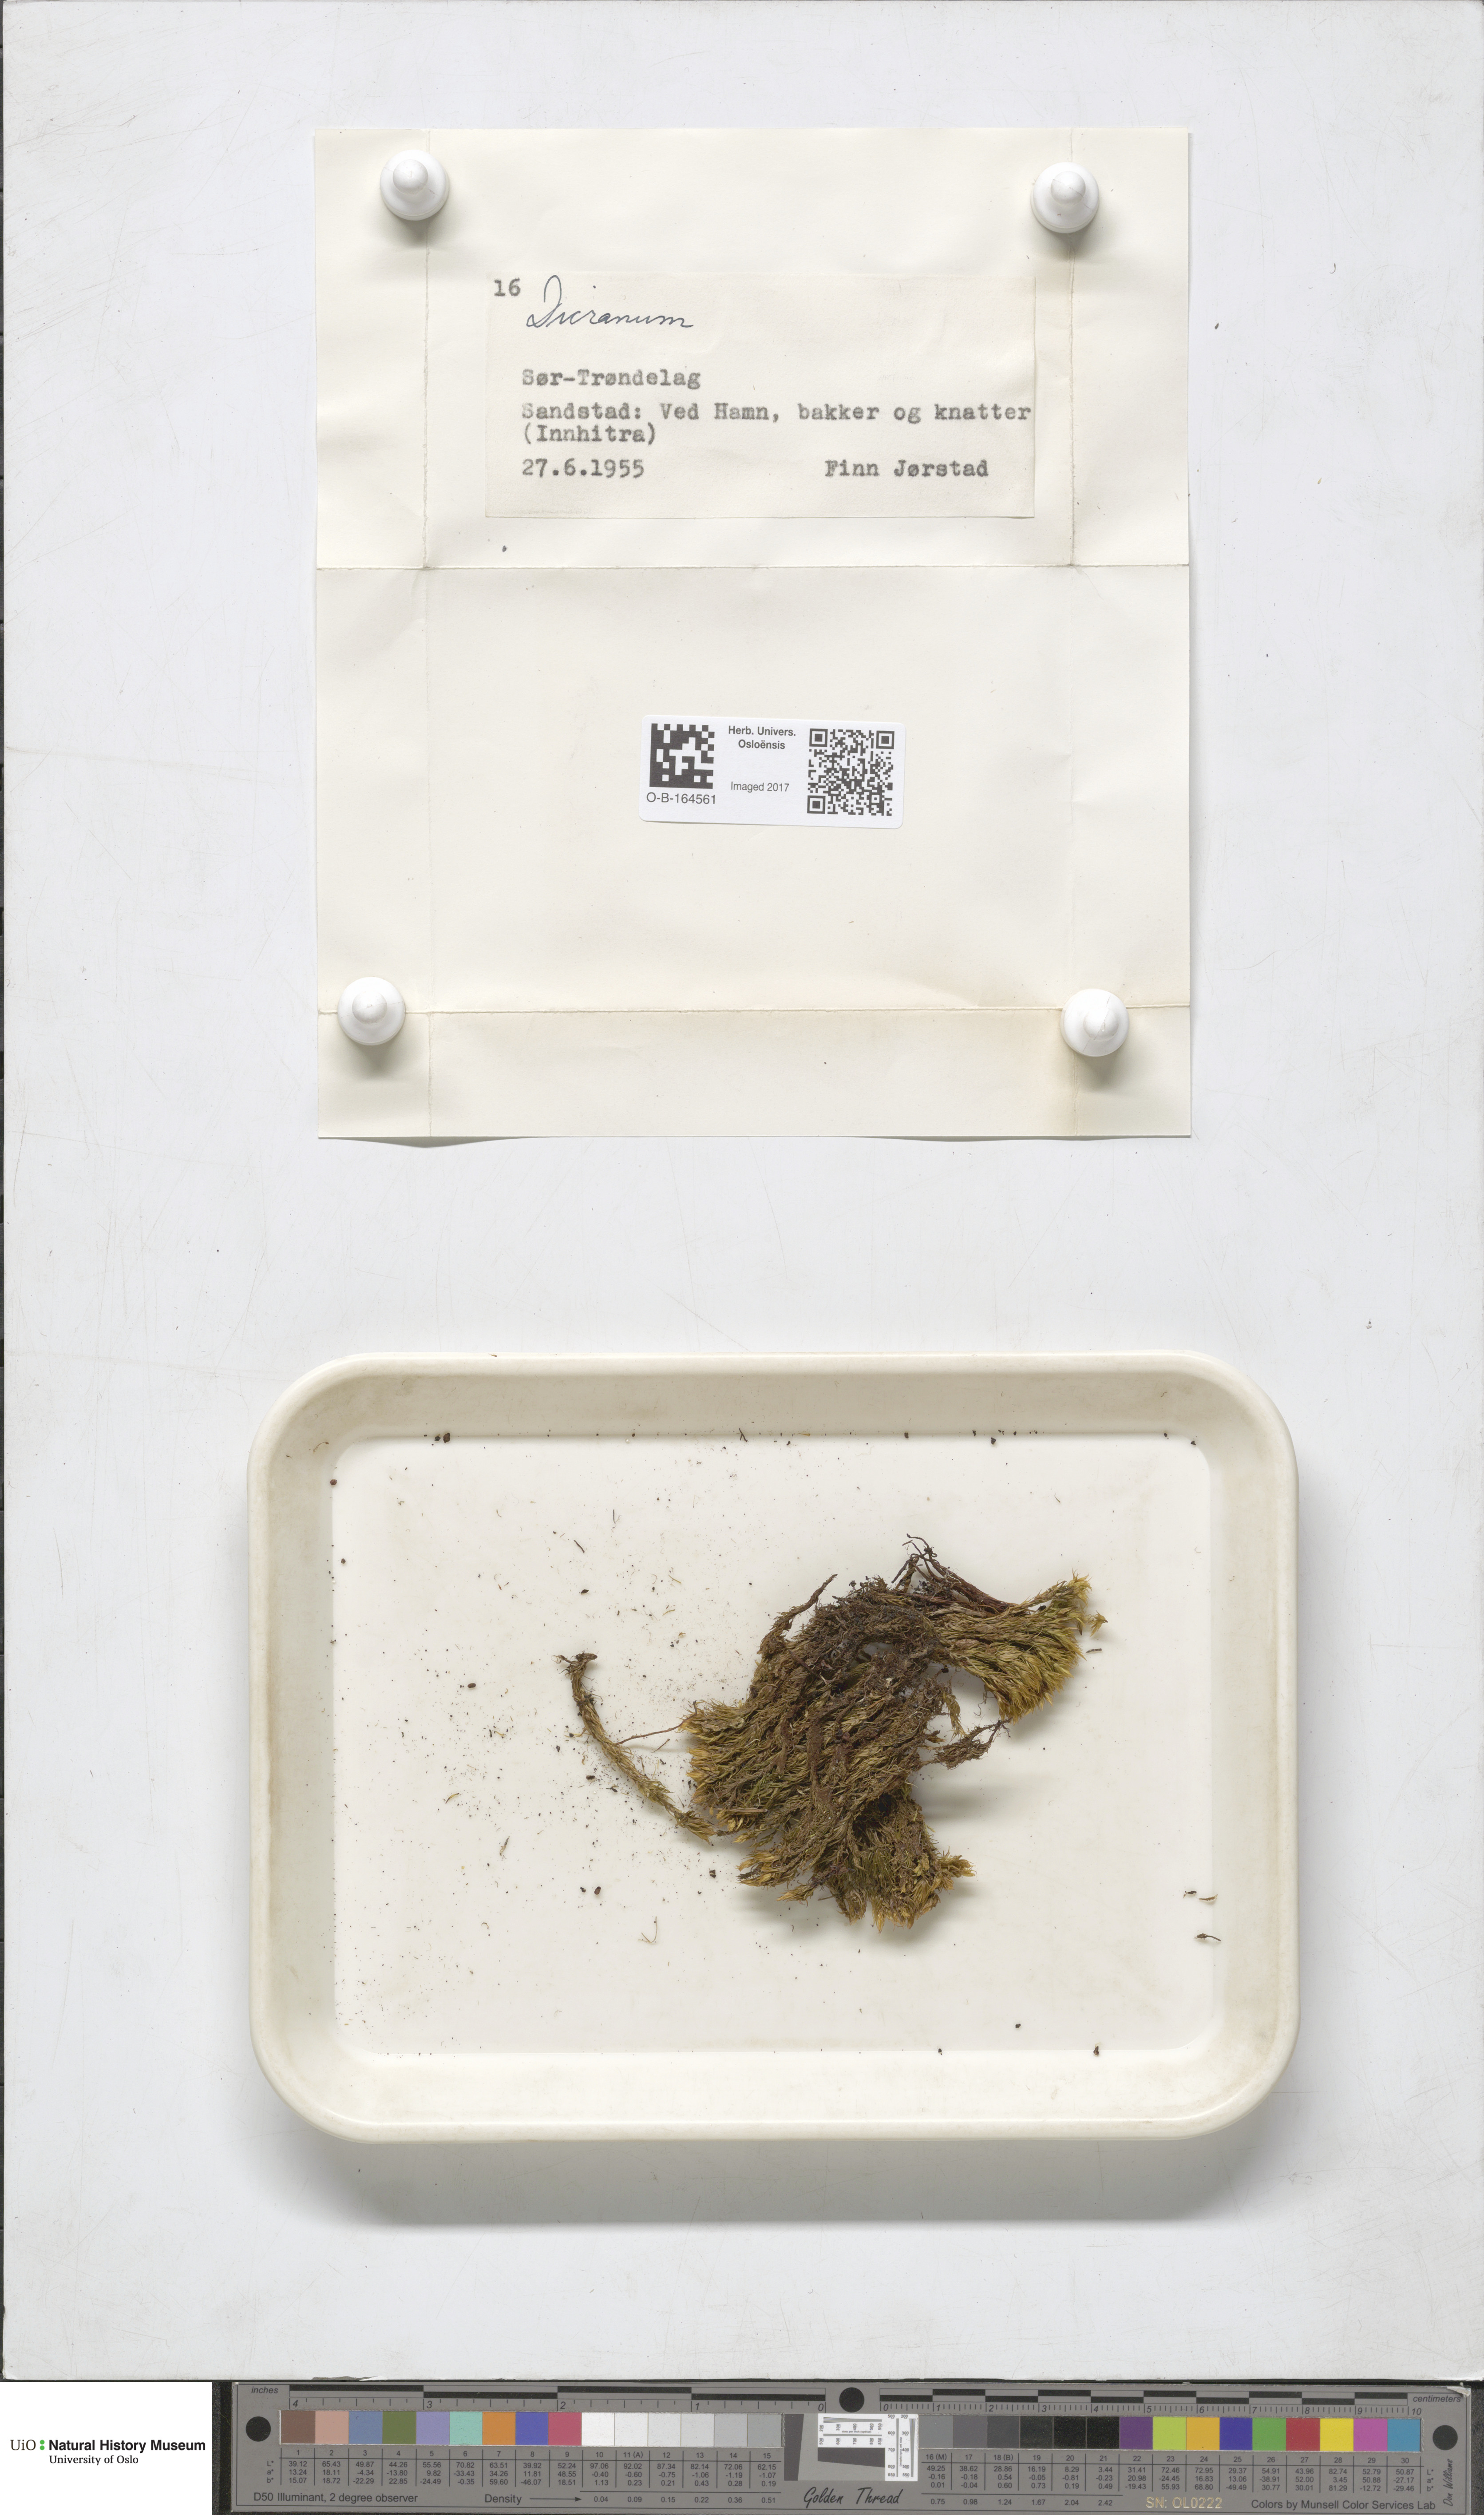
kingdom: Plantae
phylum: Bryophyta
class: Bryopsida
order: Dicranales
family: Dicranaceae
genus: Dicranum
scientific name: Dicranum
